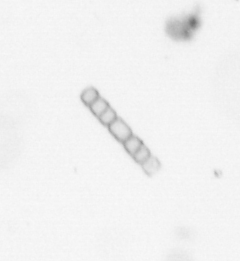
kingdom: Chromista
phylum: Ochrophyta
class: Bacillariophyceae
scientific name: Bacillariophyceae
